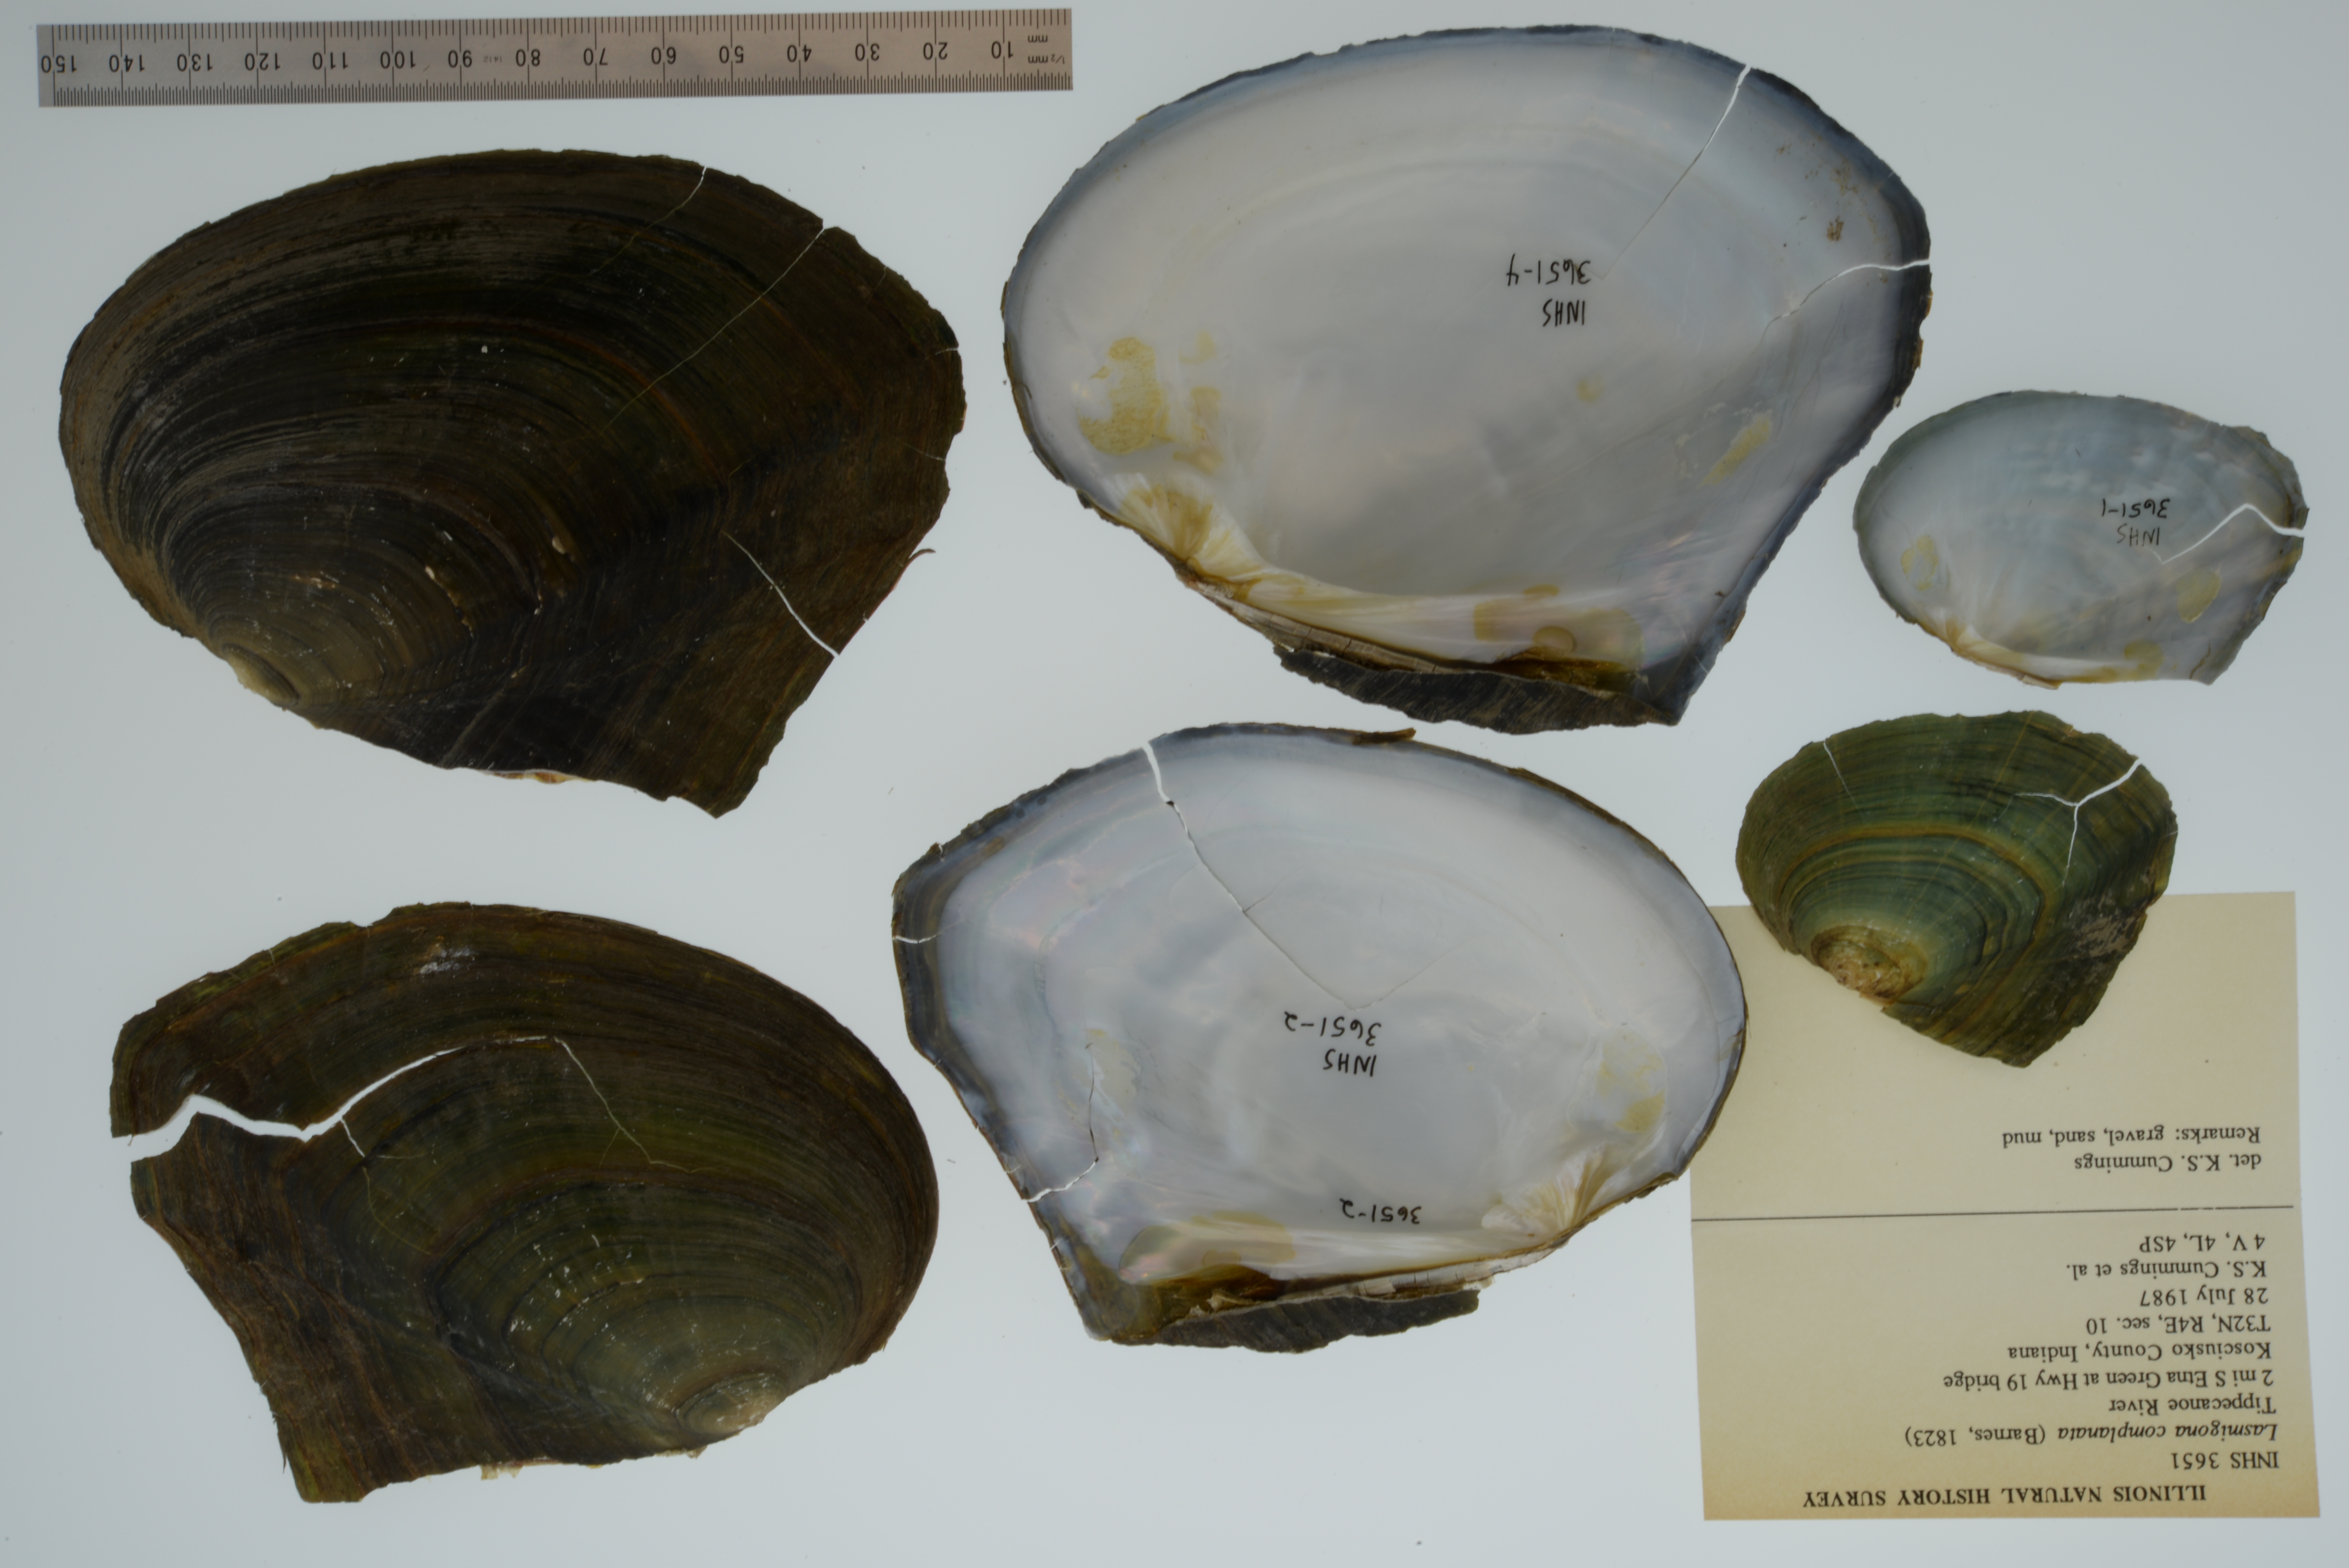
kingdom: Animalia
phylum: Mollusca
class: Bivalvia
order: Unionida
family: Unionidae
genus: Lasmigona
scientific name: Lasmigona complanata
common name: White heelsplitter
